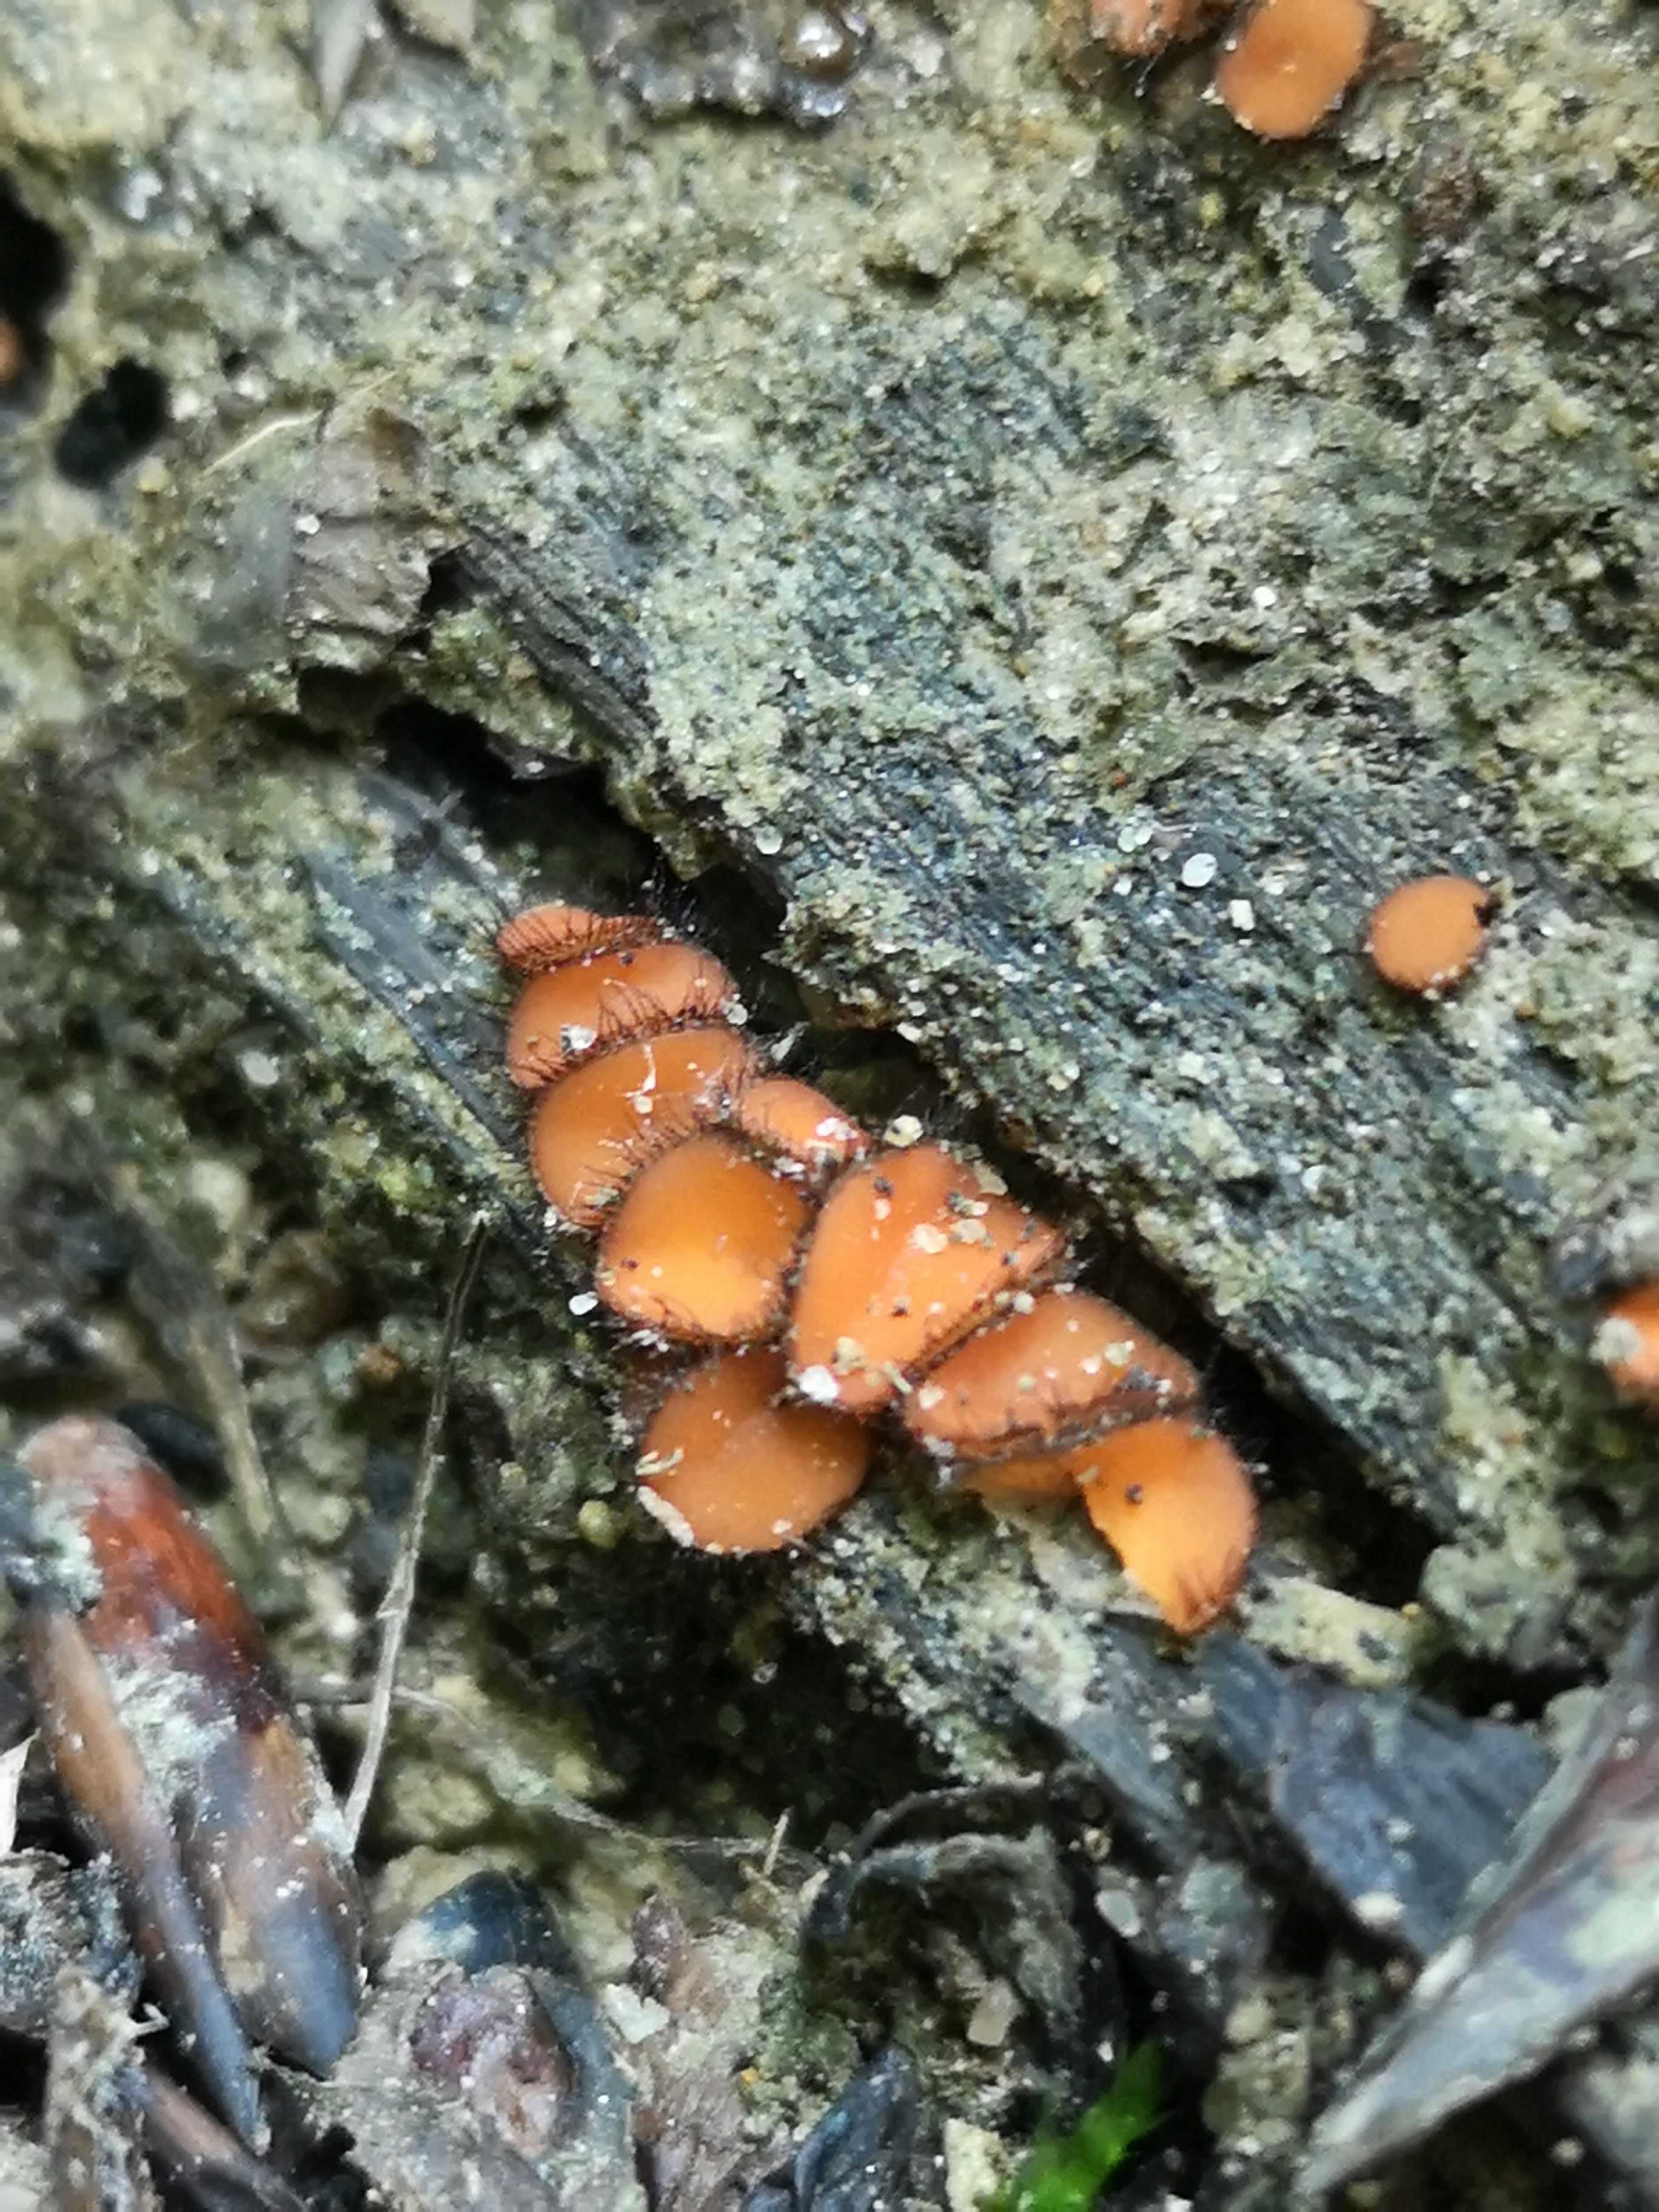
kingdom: Fungi
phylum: Ascomycota
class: Pezizomycetes
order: Pezizales
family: Pyronemataceae
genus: Scutellinia
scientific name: Scutellinia scutellata
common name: frynset skjoldbæger
